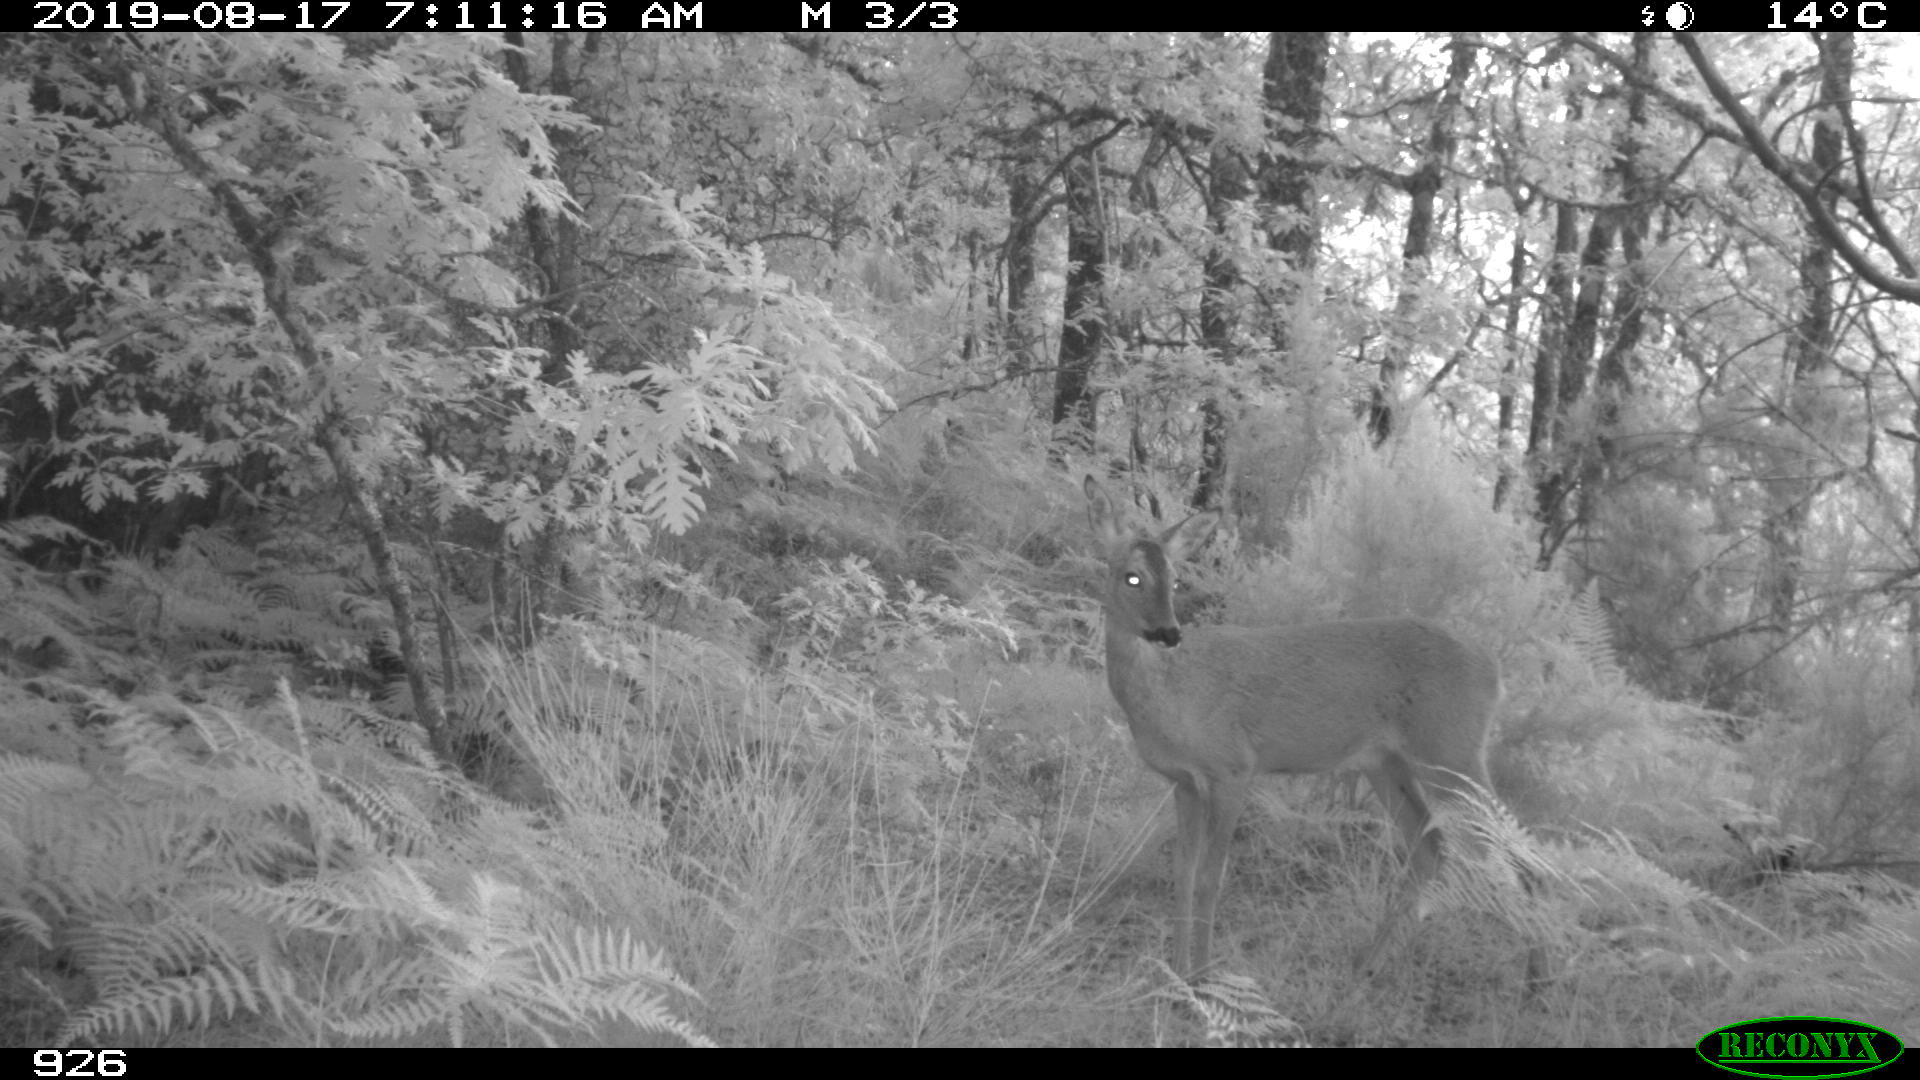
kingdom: Animalia
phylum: Chordata
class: Mammalia
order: Artiodactyla
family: Cervidae
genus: Capreolus
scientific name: Capreolus capreolus
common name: Western roe deer
